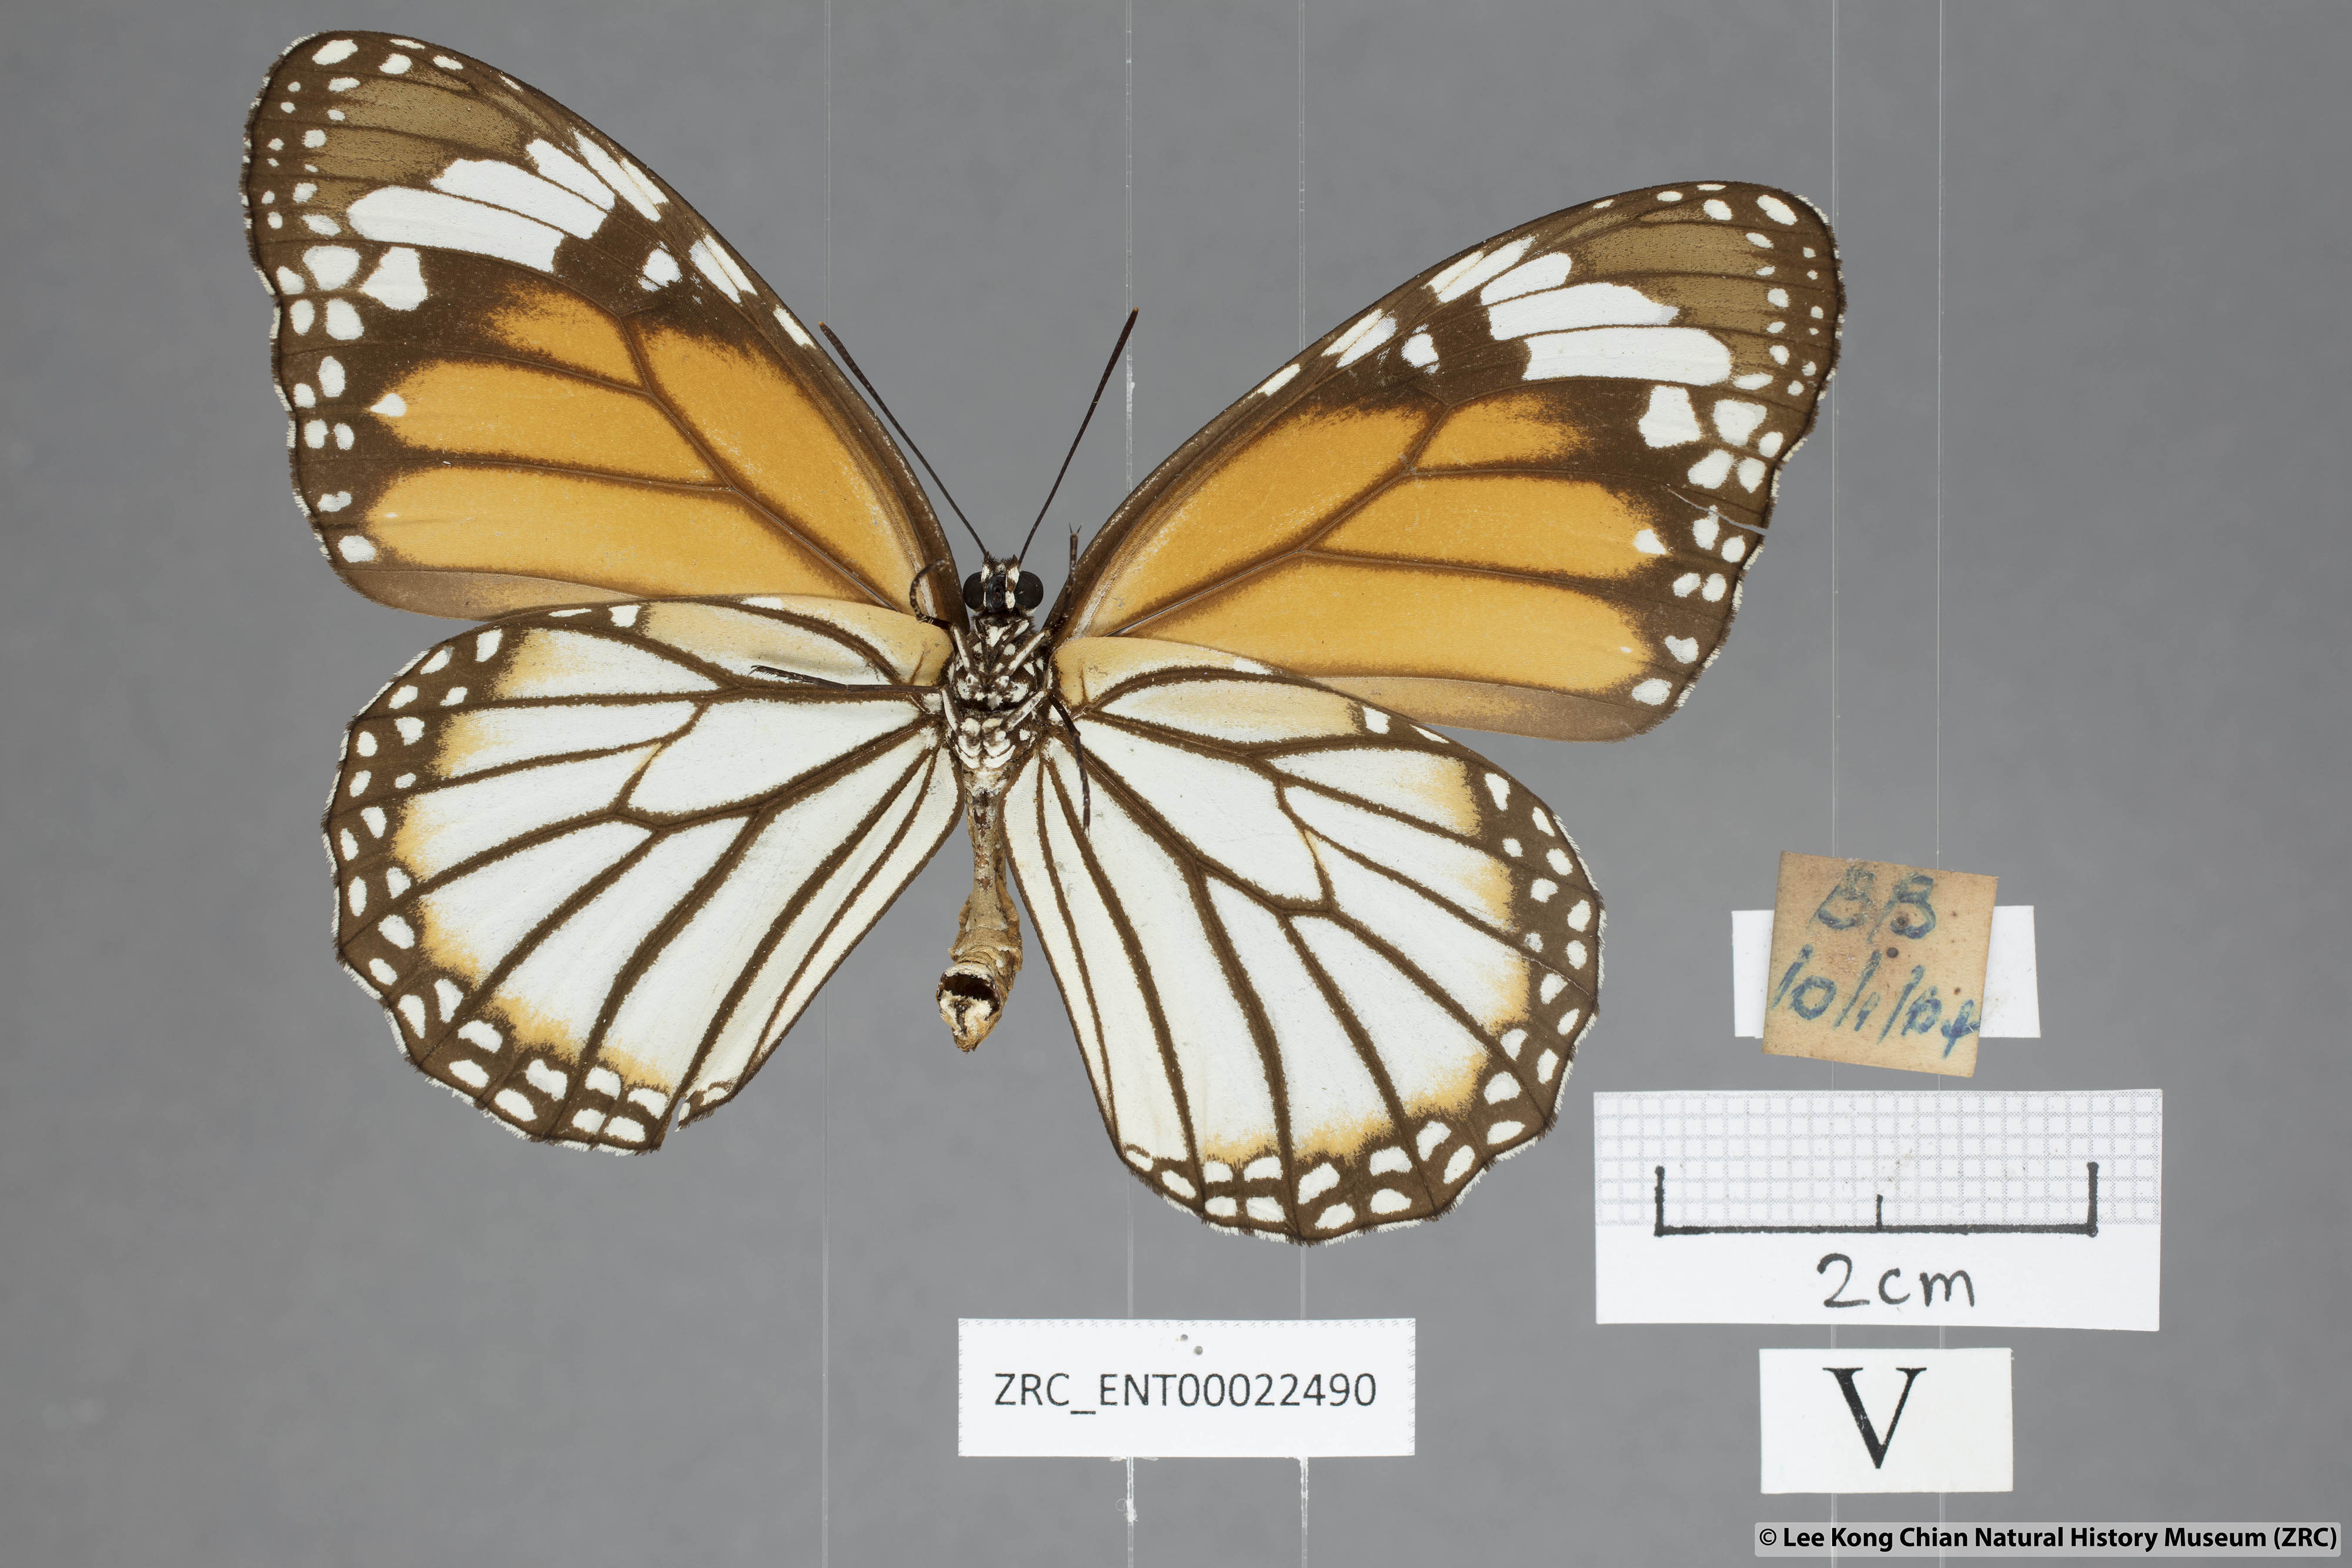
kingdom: Animalia
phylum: Arthropoda
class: Insecta
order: Lepidoptera
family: Nymphalidae
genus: Danaus
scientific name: Danaus genutia
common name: Common tiger butterfly
